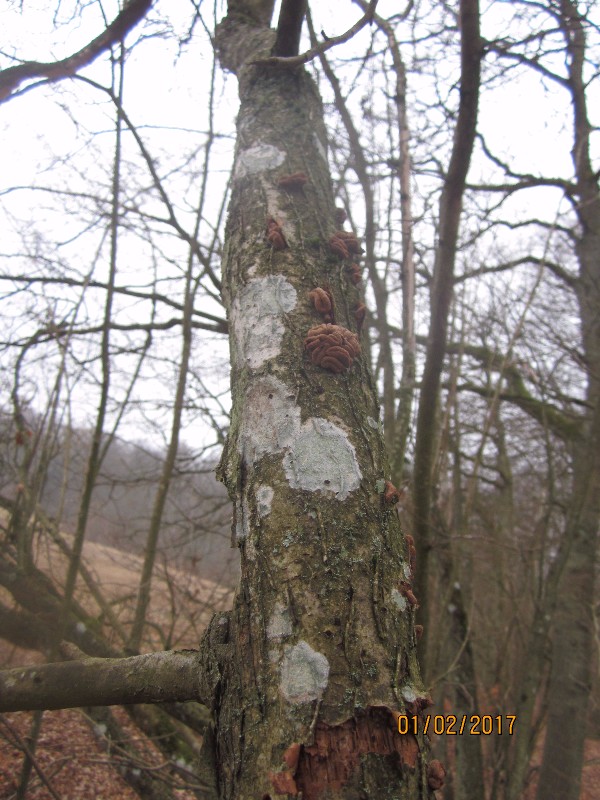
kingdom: Fungi
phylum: Ascomycota
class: Leotiomycetes
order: Helotiales
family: Cenangiaceae
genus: Encoelia
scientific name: Encoelia furfuracea
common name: hassel-læderskive
